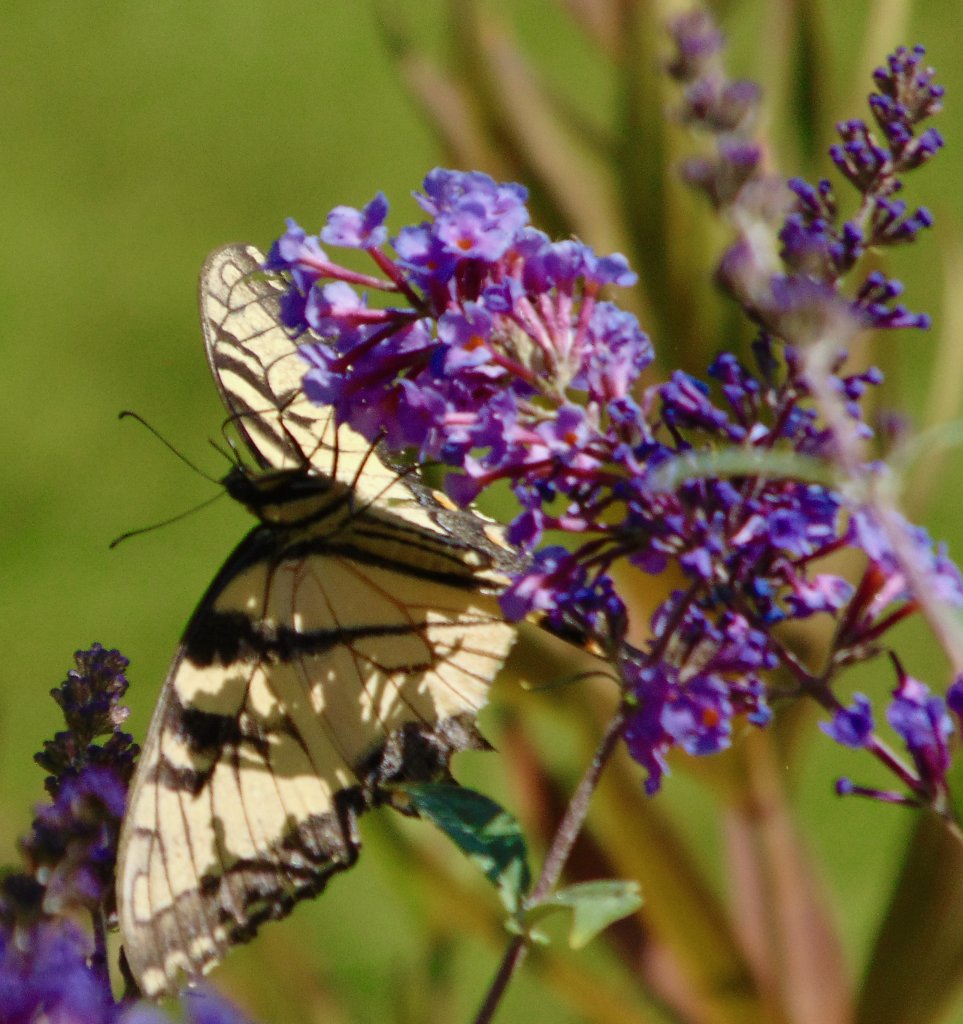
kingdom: Animalia
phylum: Arthropoda
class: Insecta
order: Lepidoptera
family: Papilionidae
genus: Pterourus
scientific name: Pterourus glaucus
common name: Eastern Tiger Swallowtail
